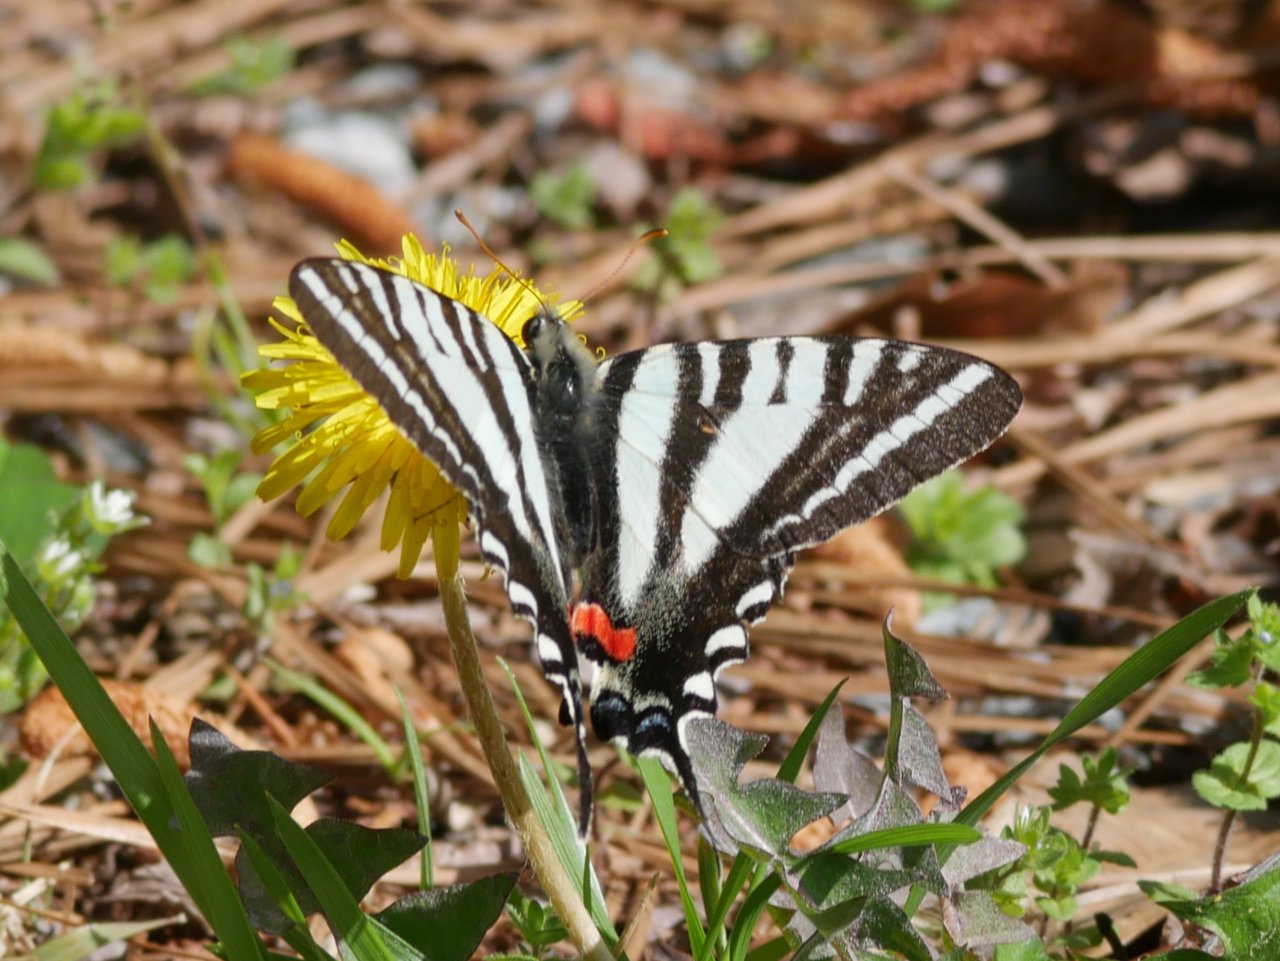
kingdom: Animalia
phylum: Arthropoda
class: Insecta
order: Lepidoptera
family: Papilionidae
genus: Protographium
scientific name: Protographium marcellus
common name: Zebra Swallowtail
